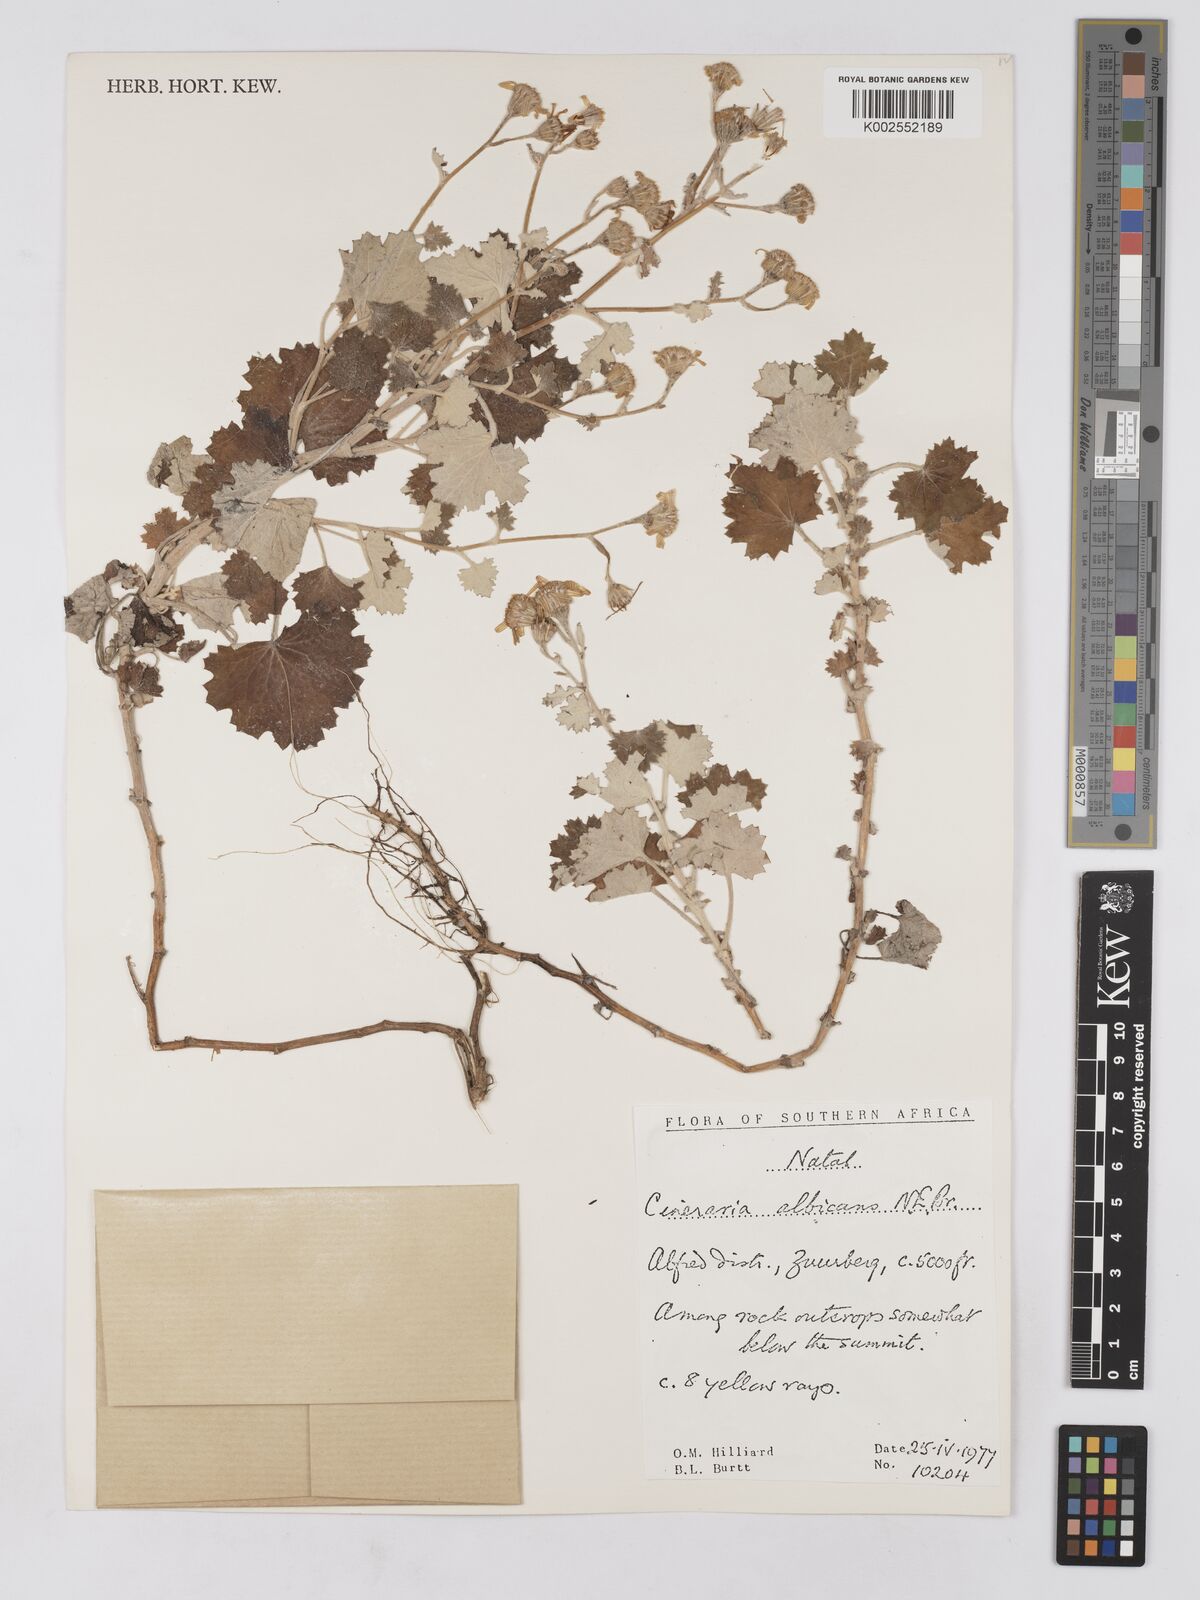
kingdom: Plantae
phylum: Tracheophyta
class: Magnoliopsida
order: Asterales
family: Asteraceae
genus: Cineraria
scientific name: Cineraria albicans
